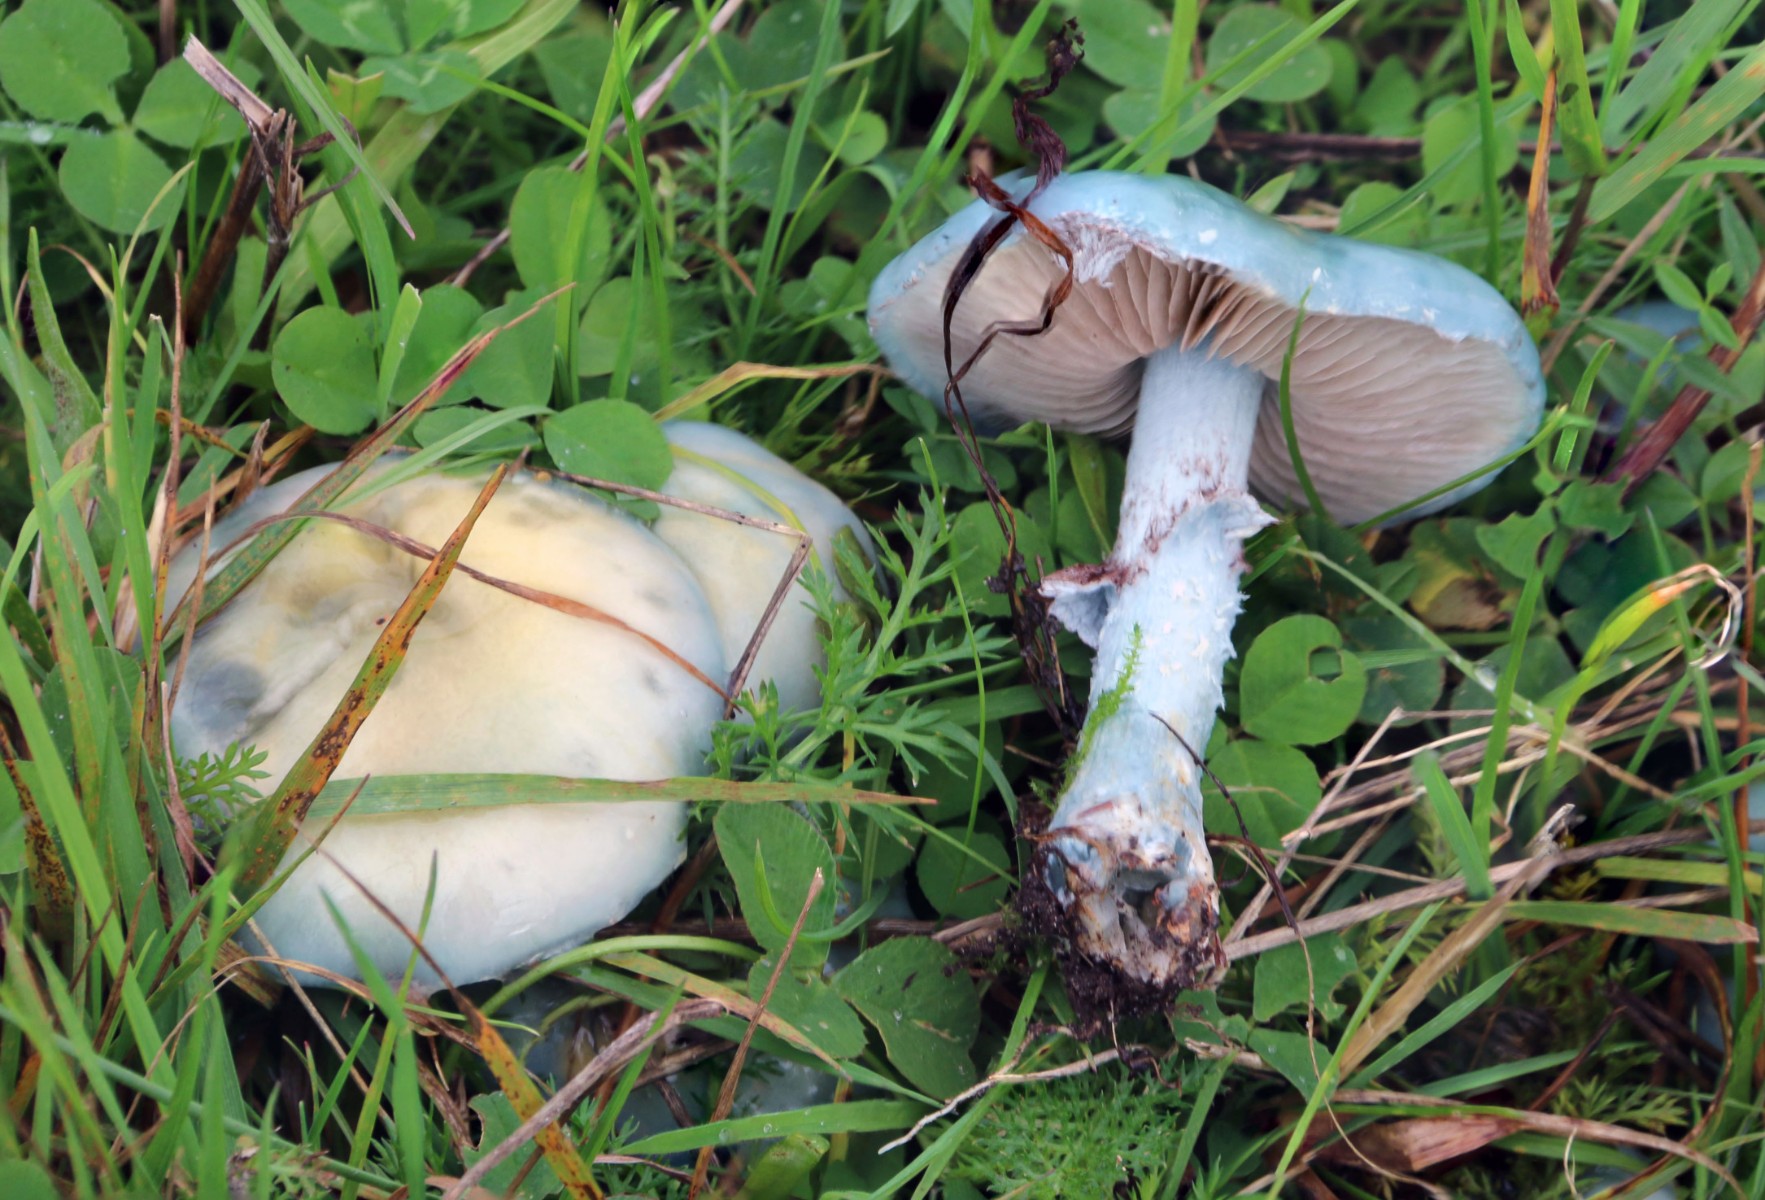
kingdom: Fungi
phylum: Basidiomycota
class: Agaricomycetes
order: Agaricales
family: Strophariaceae
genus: Stropharia
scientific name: Stropharia cyanea
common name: blågrøn bredblad
